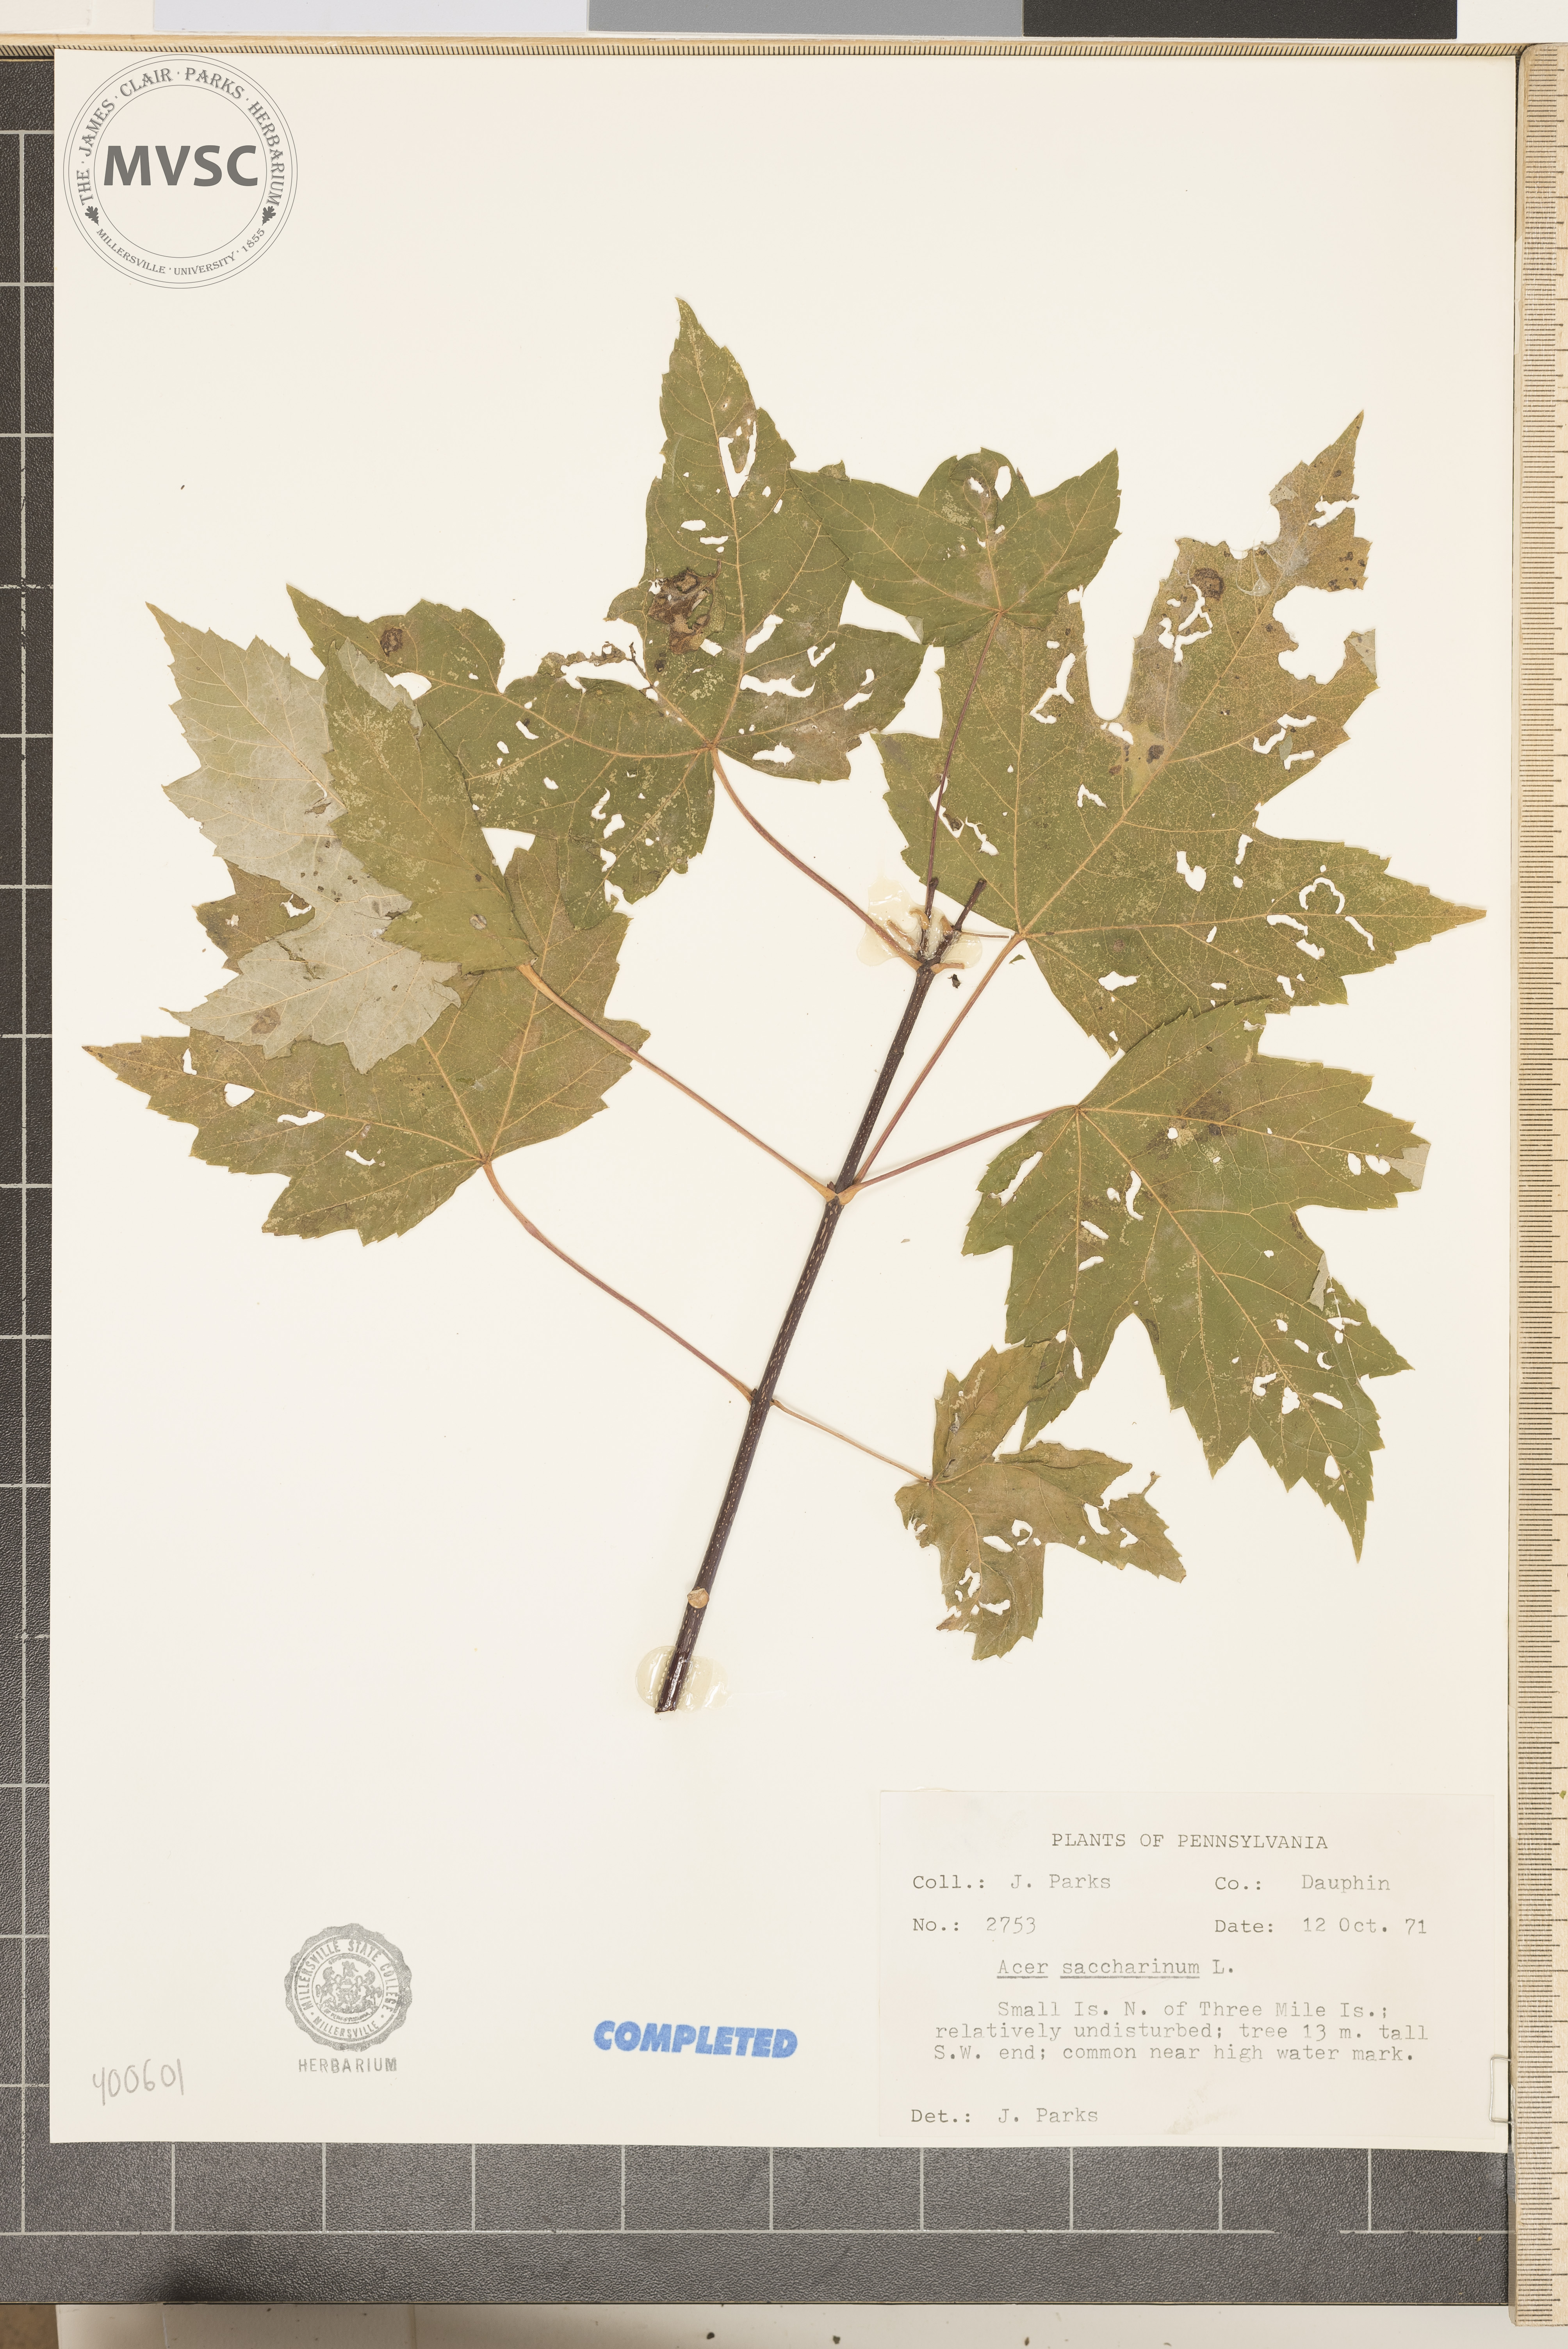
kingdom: Plantae
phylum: Tracheophyta
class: Magnoliopsida
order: Sapindales
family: Sapindaceae
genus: Acer
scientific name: Acer saccharinum
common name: Silver maple
